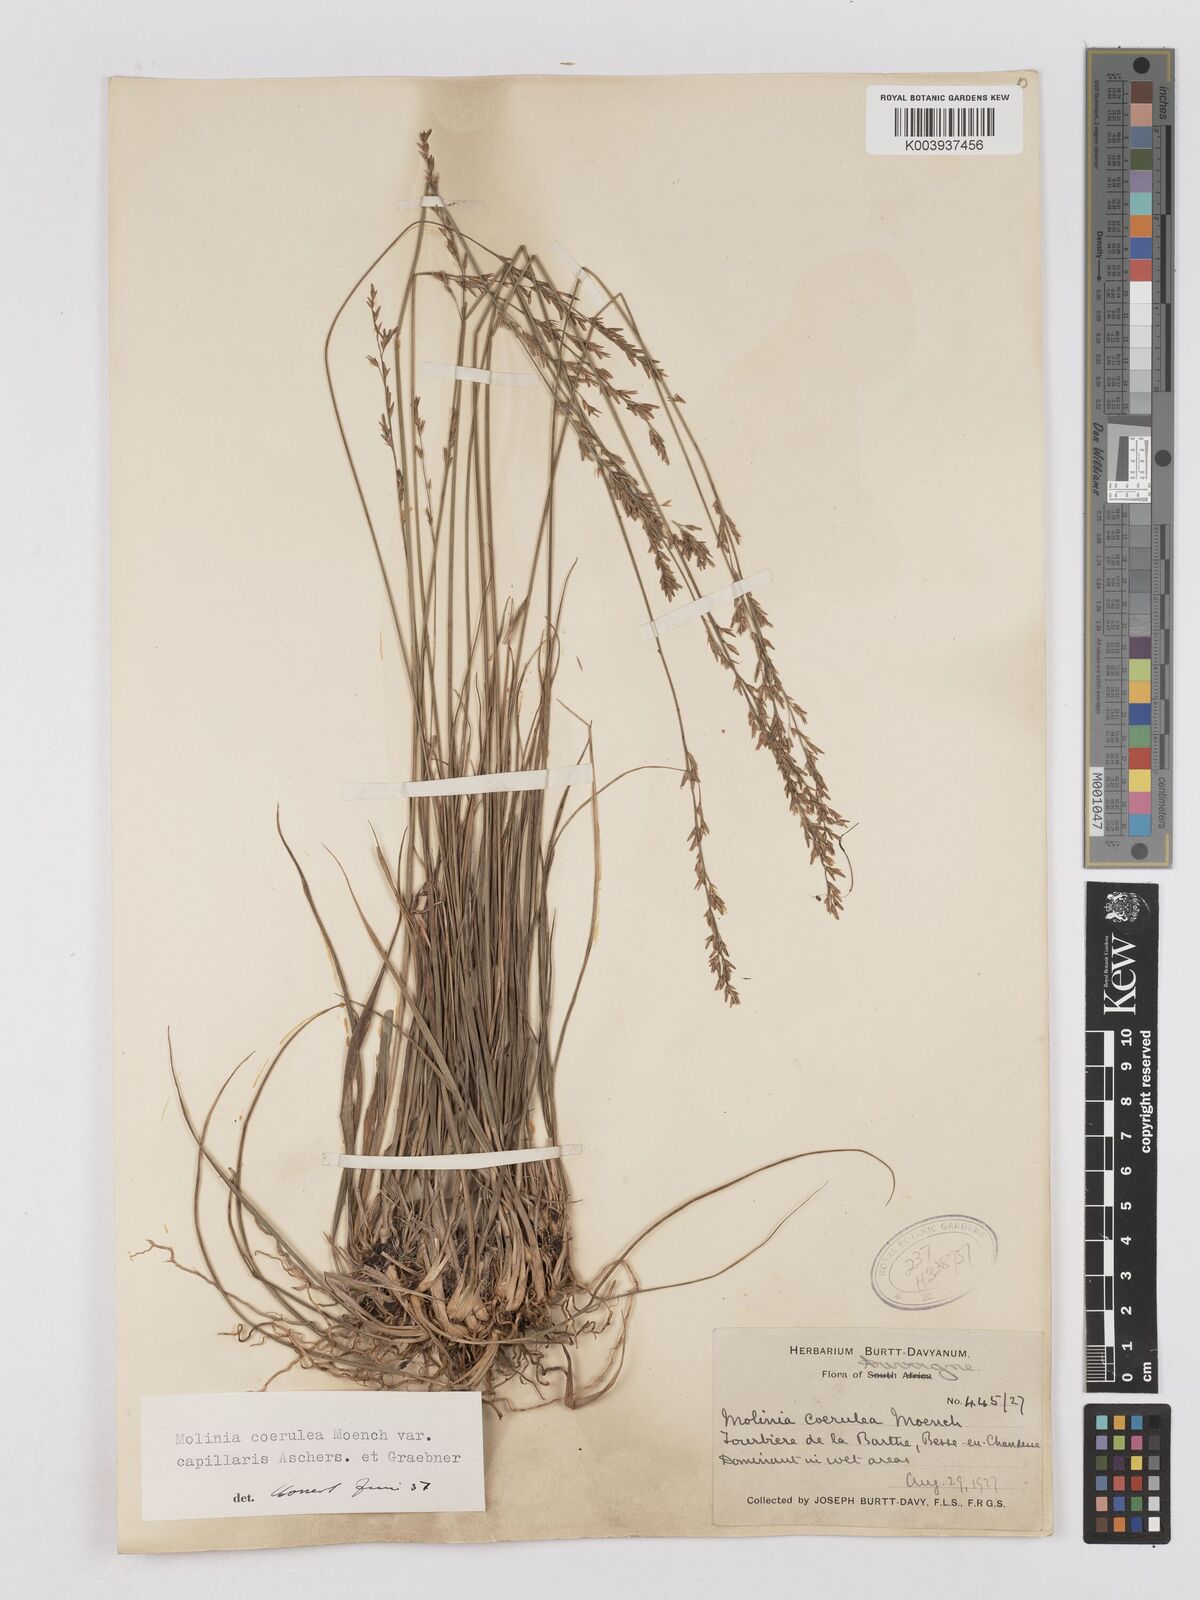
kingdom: Plantae
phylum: Tracheophyta
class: Liliopsida
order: Poales
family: Poaceae
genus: Molinia
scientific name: Molinia caerulea
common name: Purple moor-grass
